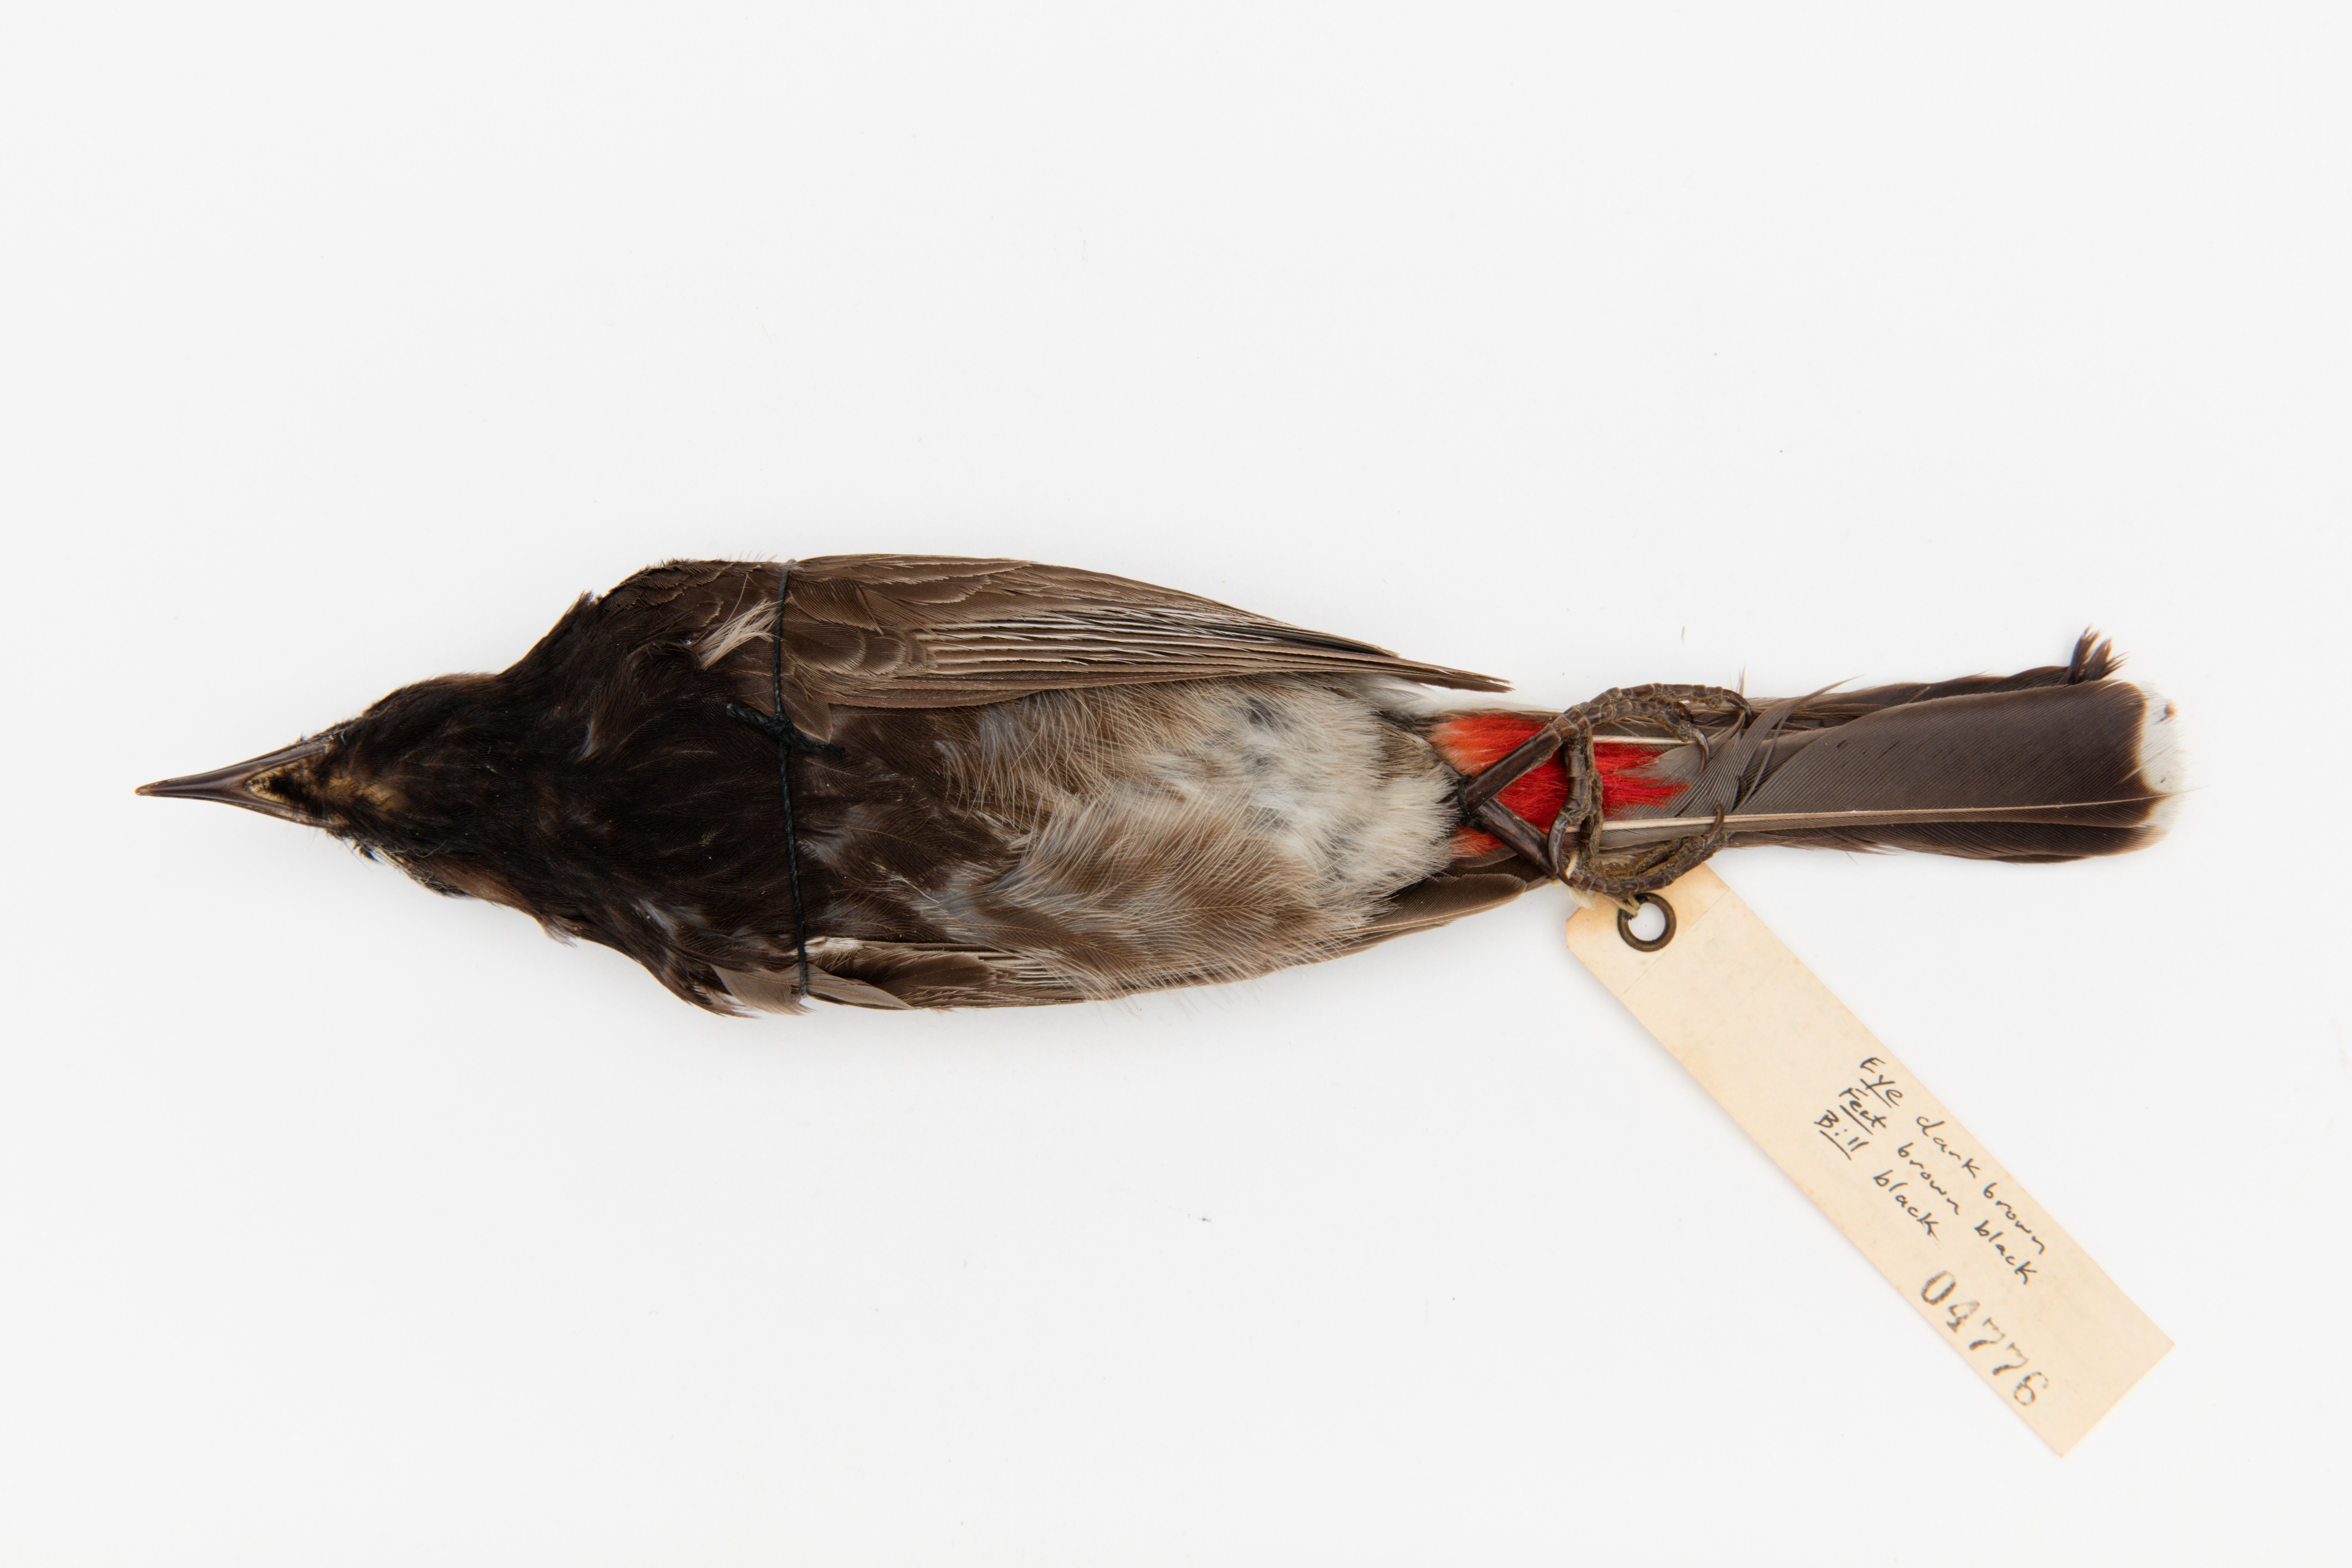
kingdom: Animalia
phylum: Chordata
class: Aves
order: Passeriformes
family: Pycnonotidae
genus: Pycnonotus
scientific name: Pycnonotus cafer
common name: Red-vented bulbul
